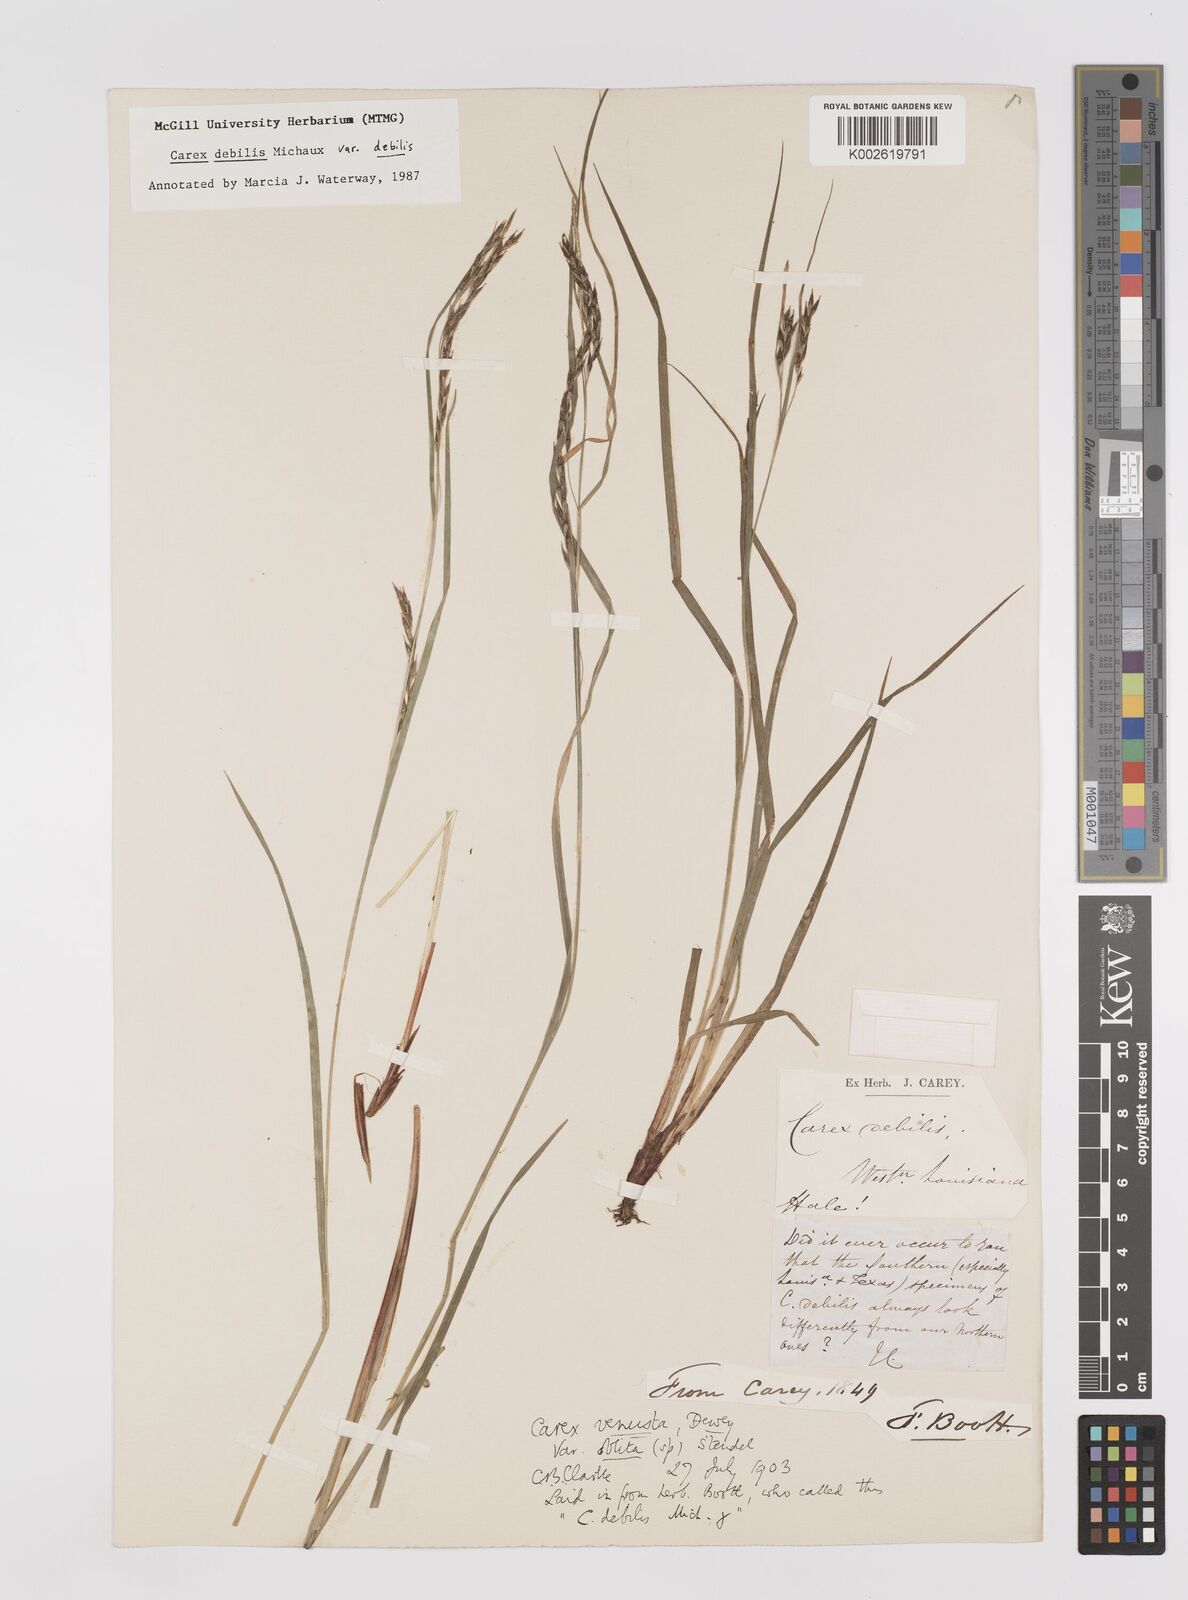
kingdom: Plantae
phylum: Tracheophyta
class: Liliopsida
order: Poales
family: Cyperaceae
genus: Carex
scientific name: Carex debilis
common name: White-edge sedge
